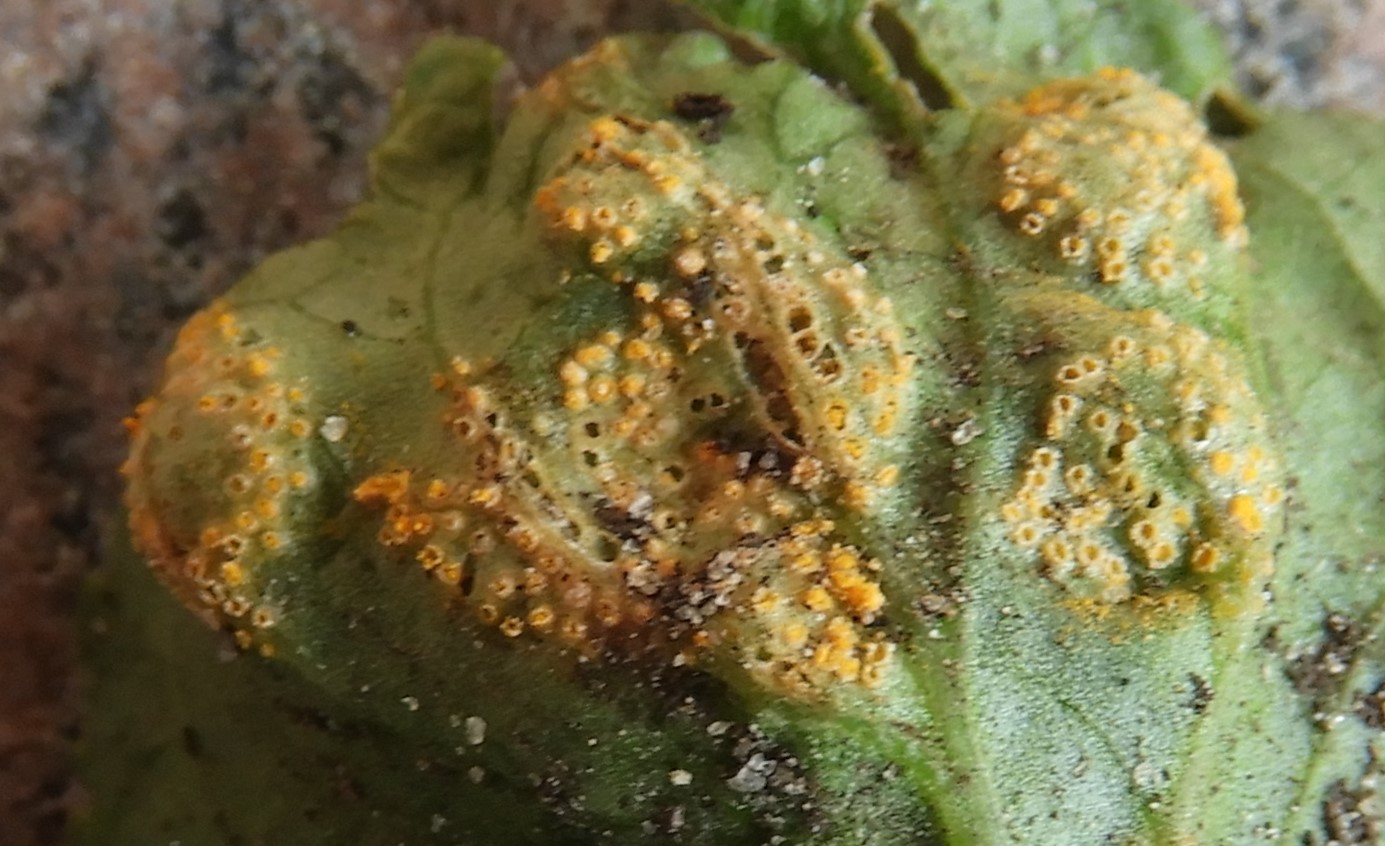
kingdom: Fungi
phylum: Basidiomycota
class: Pucciniomycetes
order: Pucciniales
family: Pucciniaceae
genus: Puccinia
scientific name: Puccinia violae
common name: viol-tvecellerust
